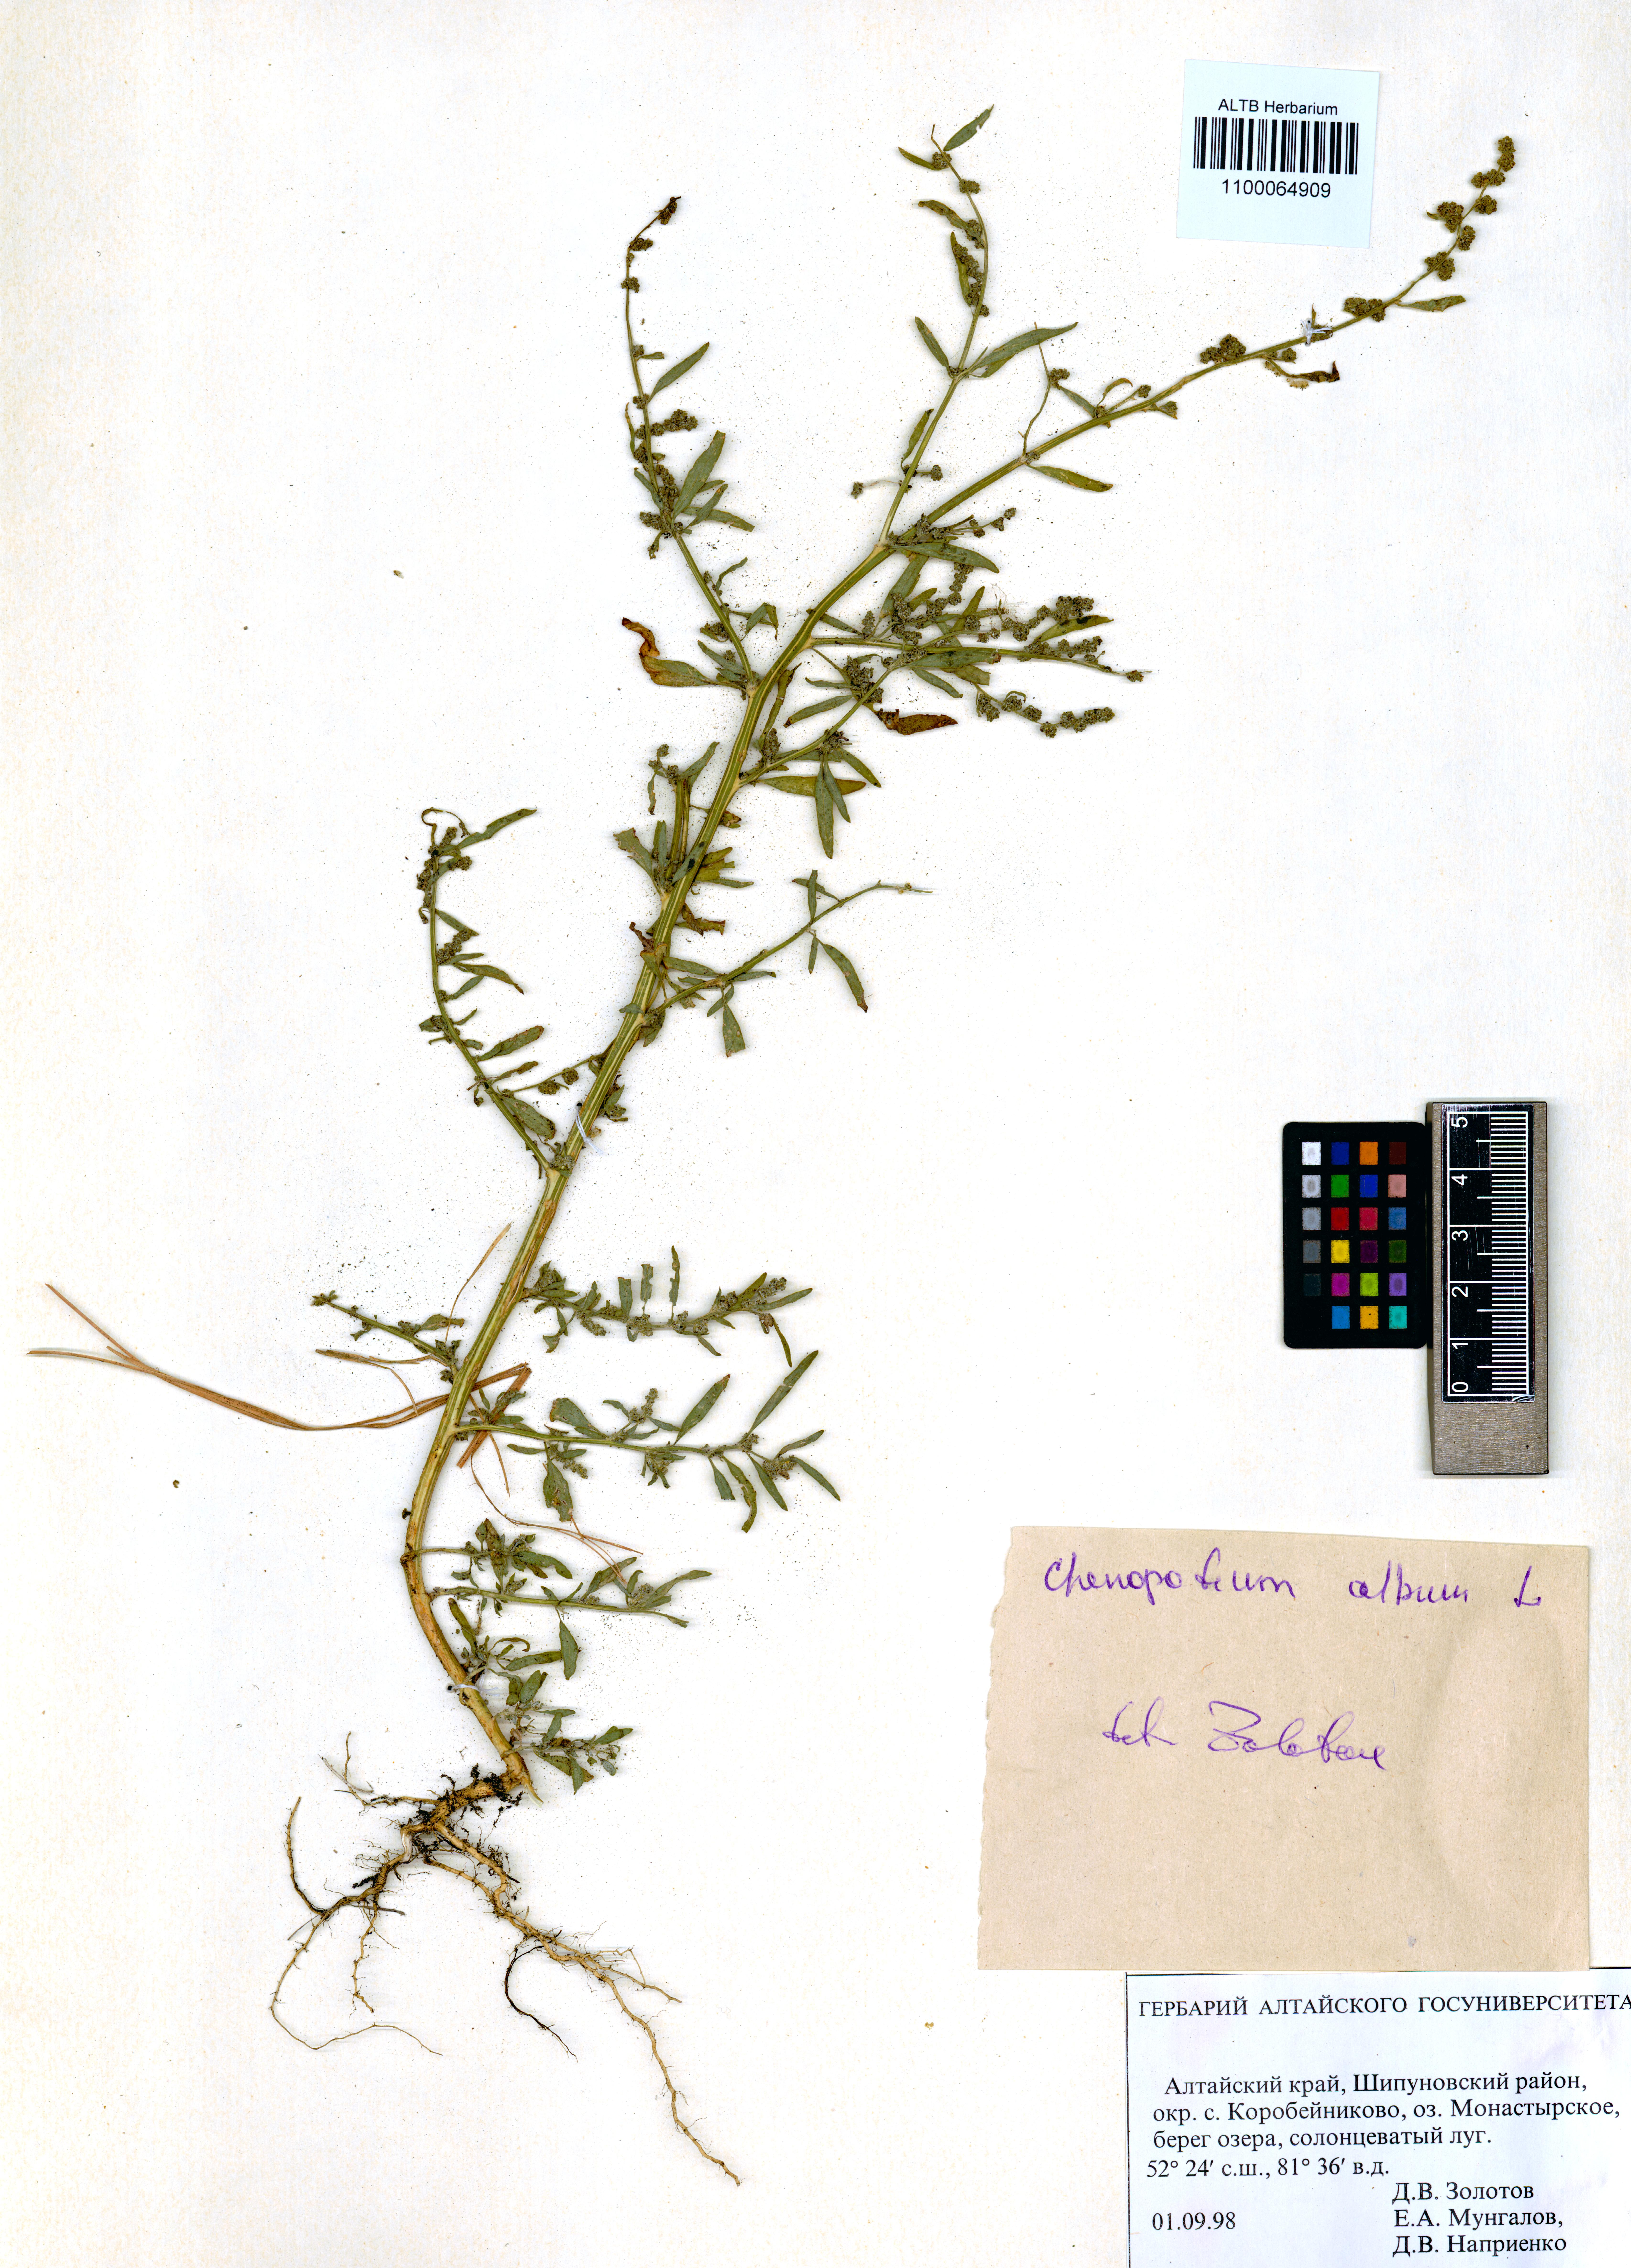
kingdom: Plantae
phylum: Tracheophyta
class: Magnoliopsida
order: Caryophyllales
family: Amaranthaceae
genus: Chenopodium
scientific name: Chenopodium album
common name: Fat-hen
